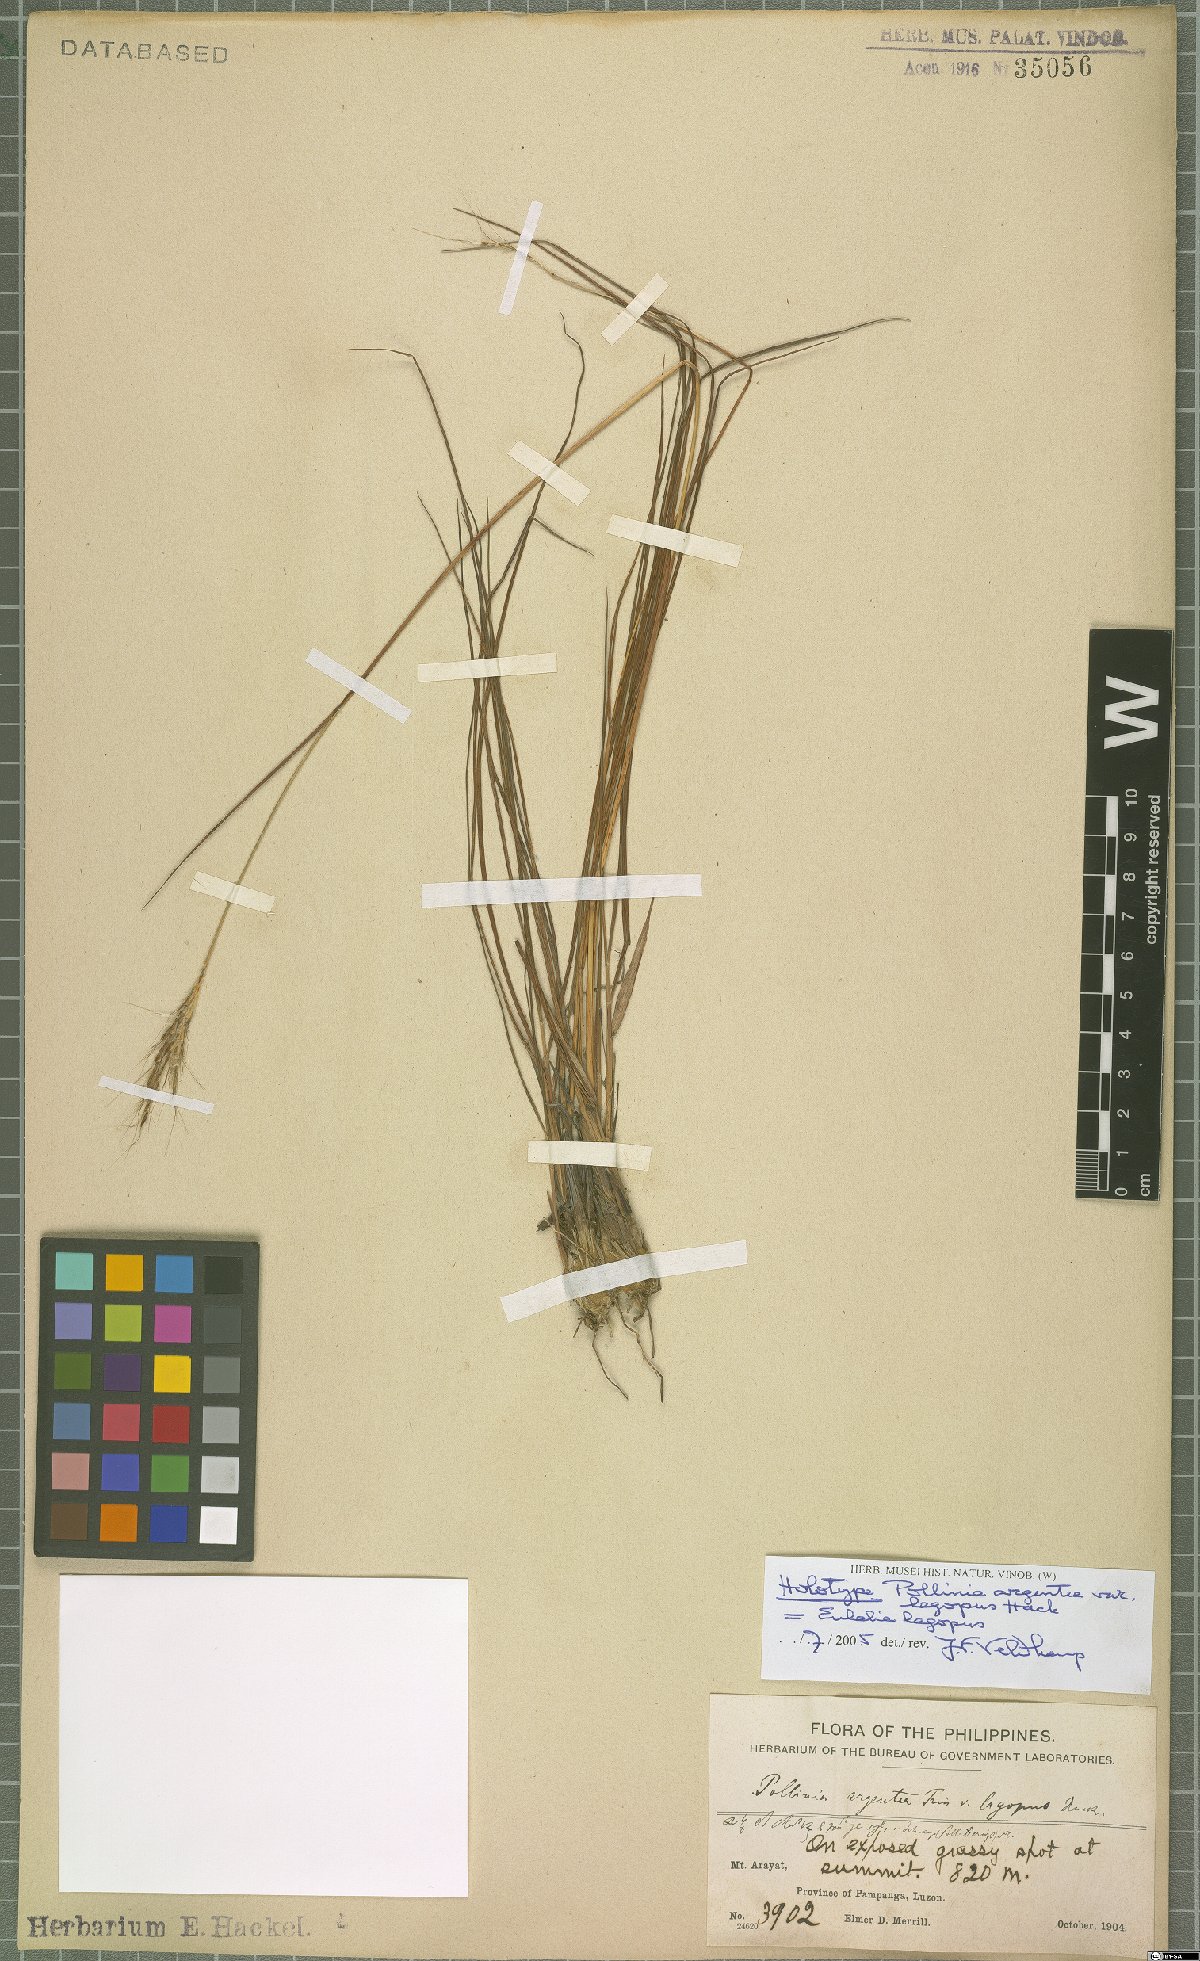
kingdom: Plantae
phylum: Tracheophyta
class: Liliopsida
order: Poales
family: Poaceae
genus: Pseudopogonatherum
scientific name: Pseudopogonatherum trispicatum
